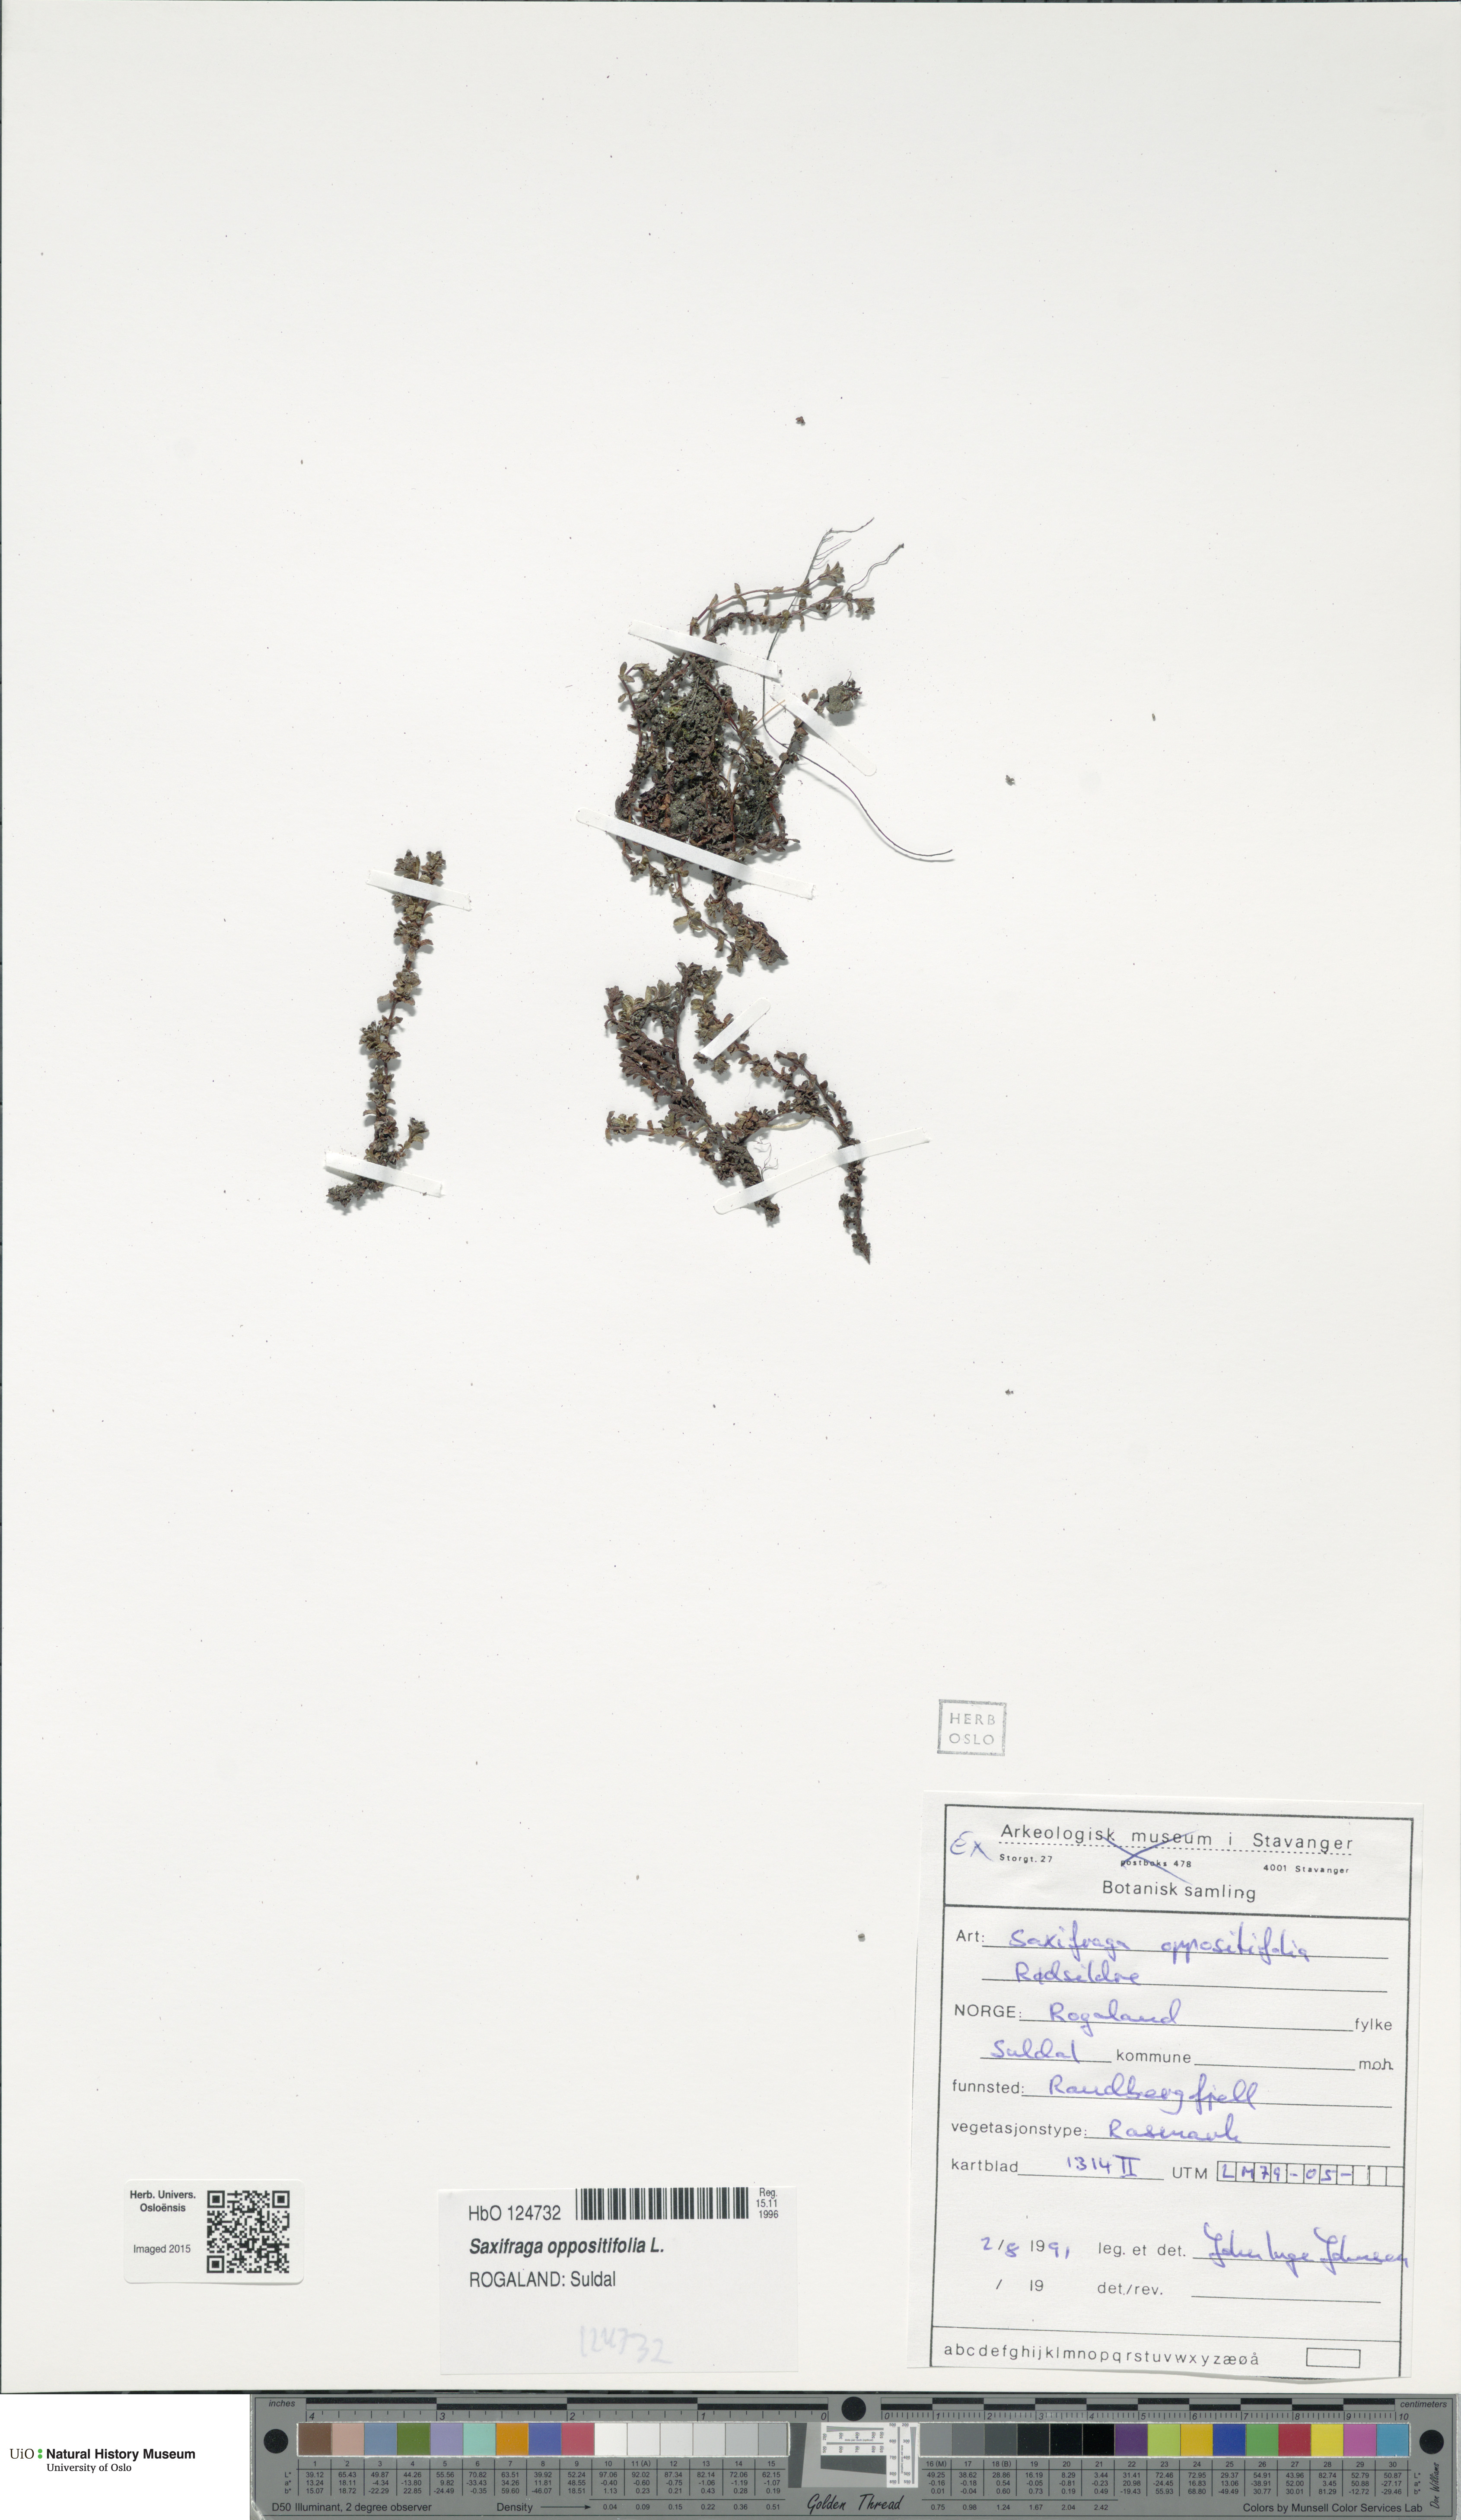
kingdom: Plantae
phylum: Tracheophyta
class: Magnoliopsida
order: Saxifragales
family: Saxifragaceae
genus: Saxifraga
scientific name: Saxifraga oppositifolia
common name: Purple saxifrage
